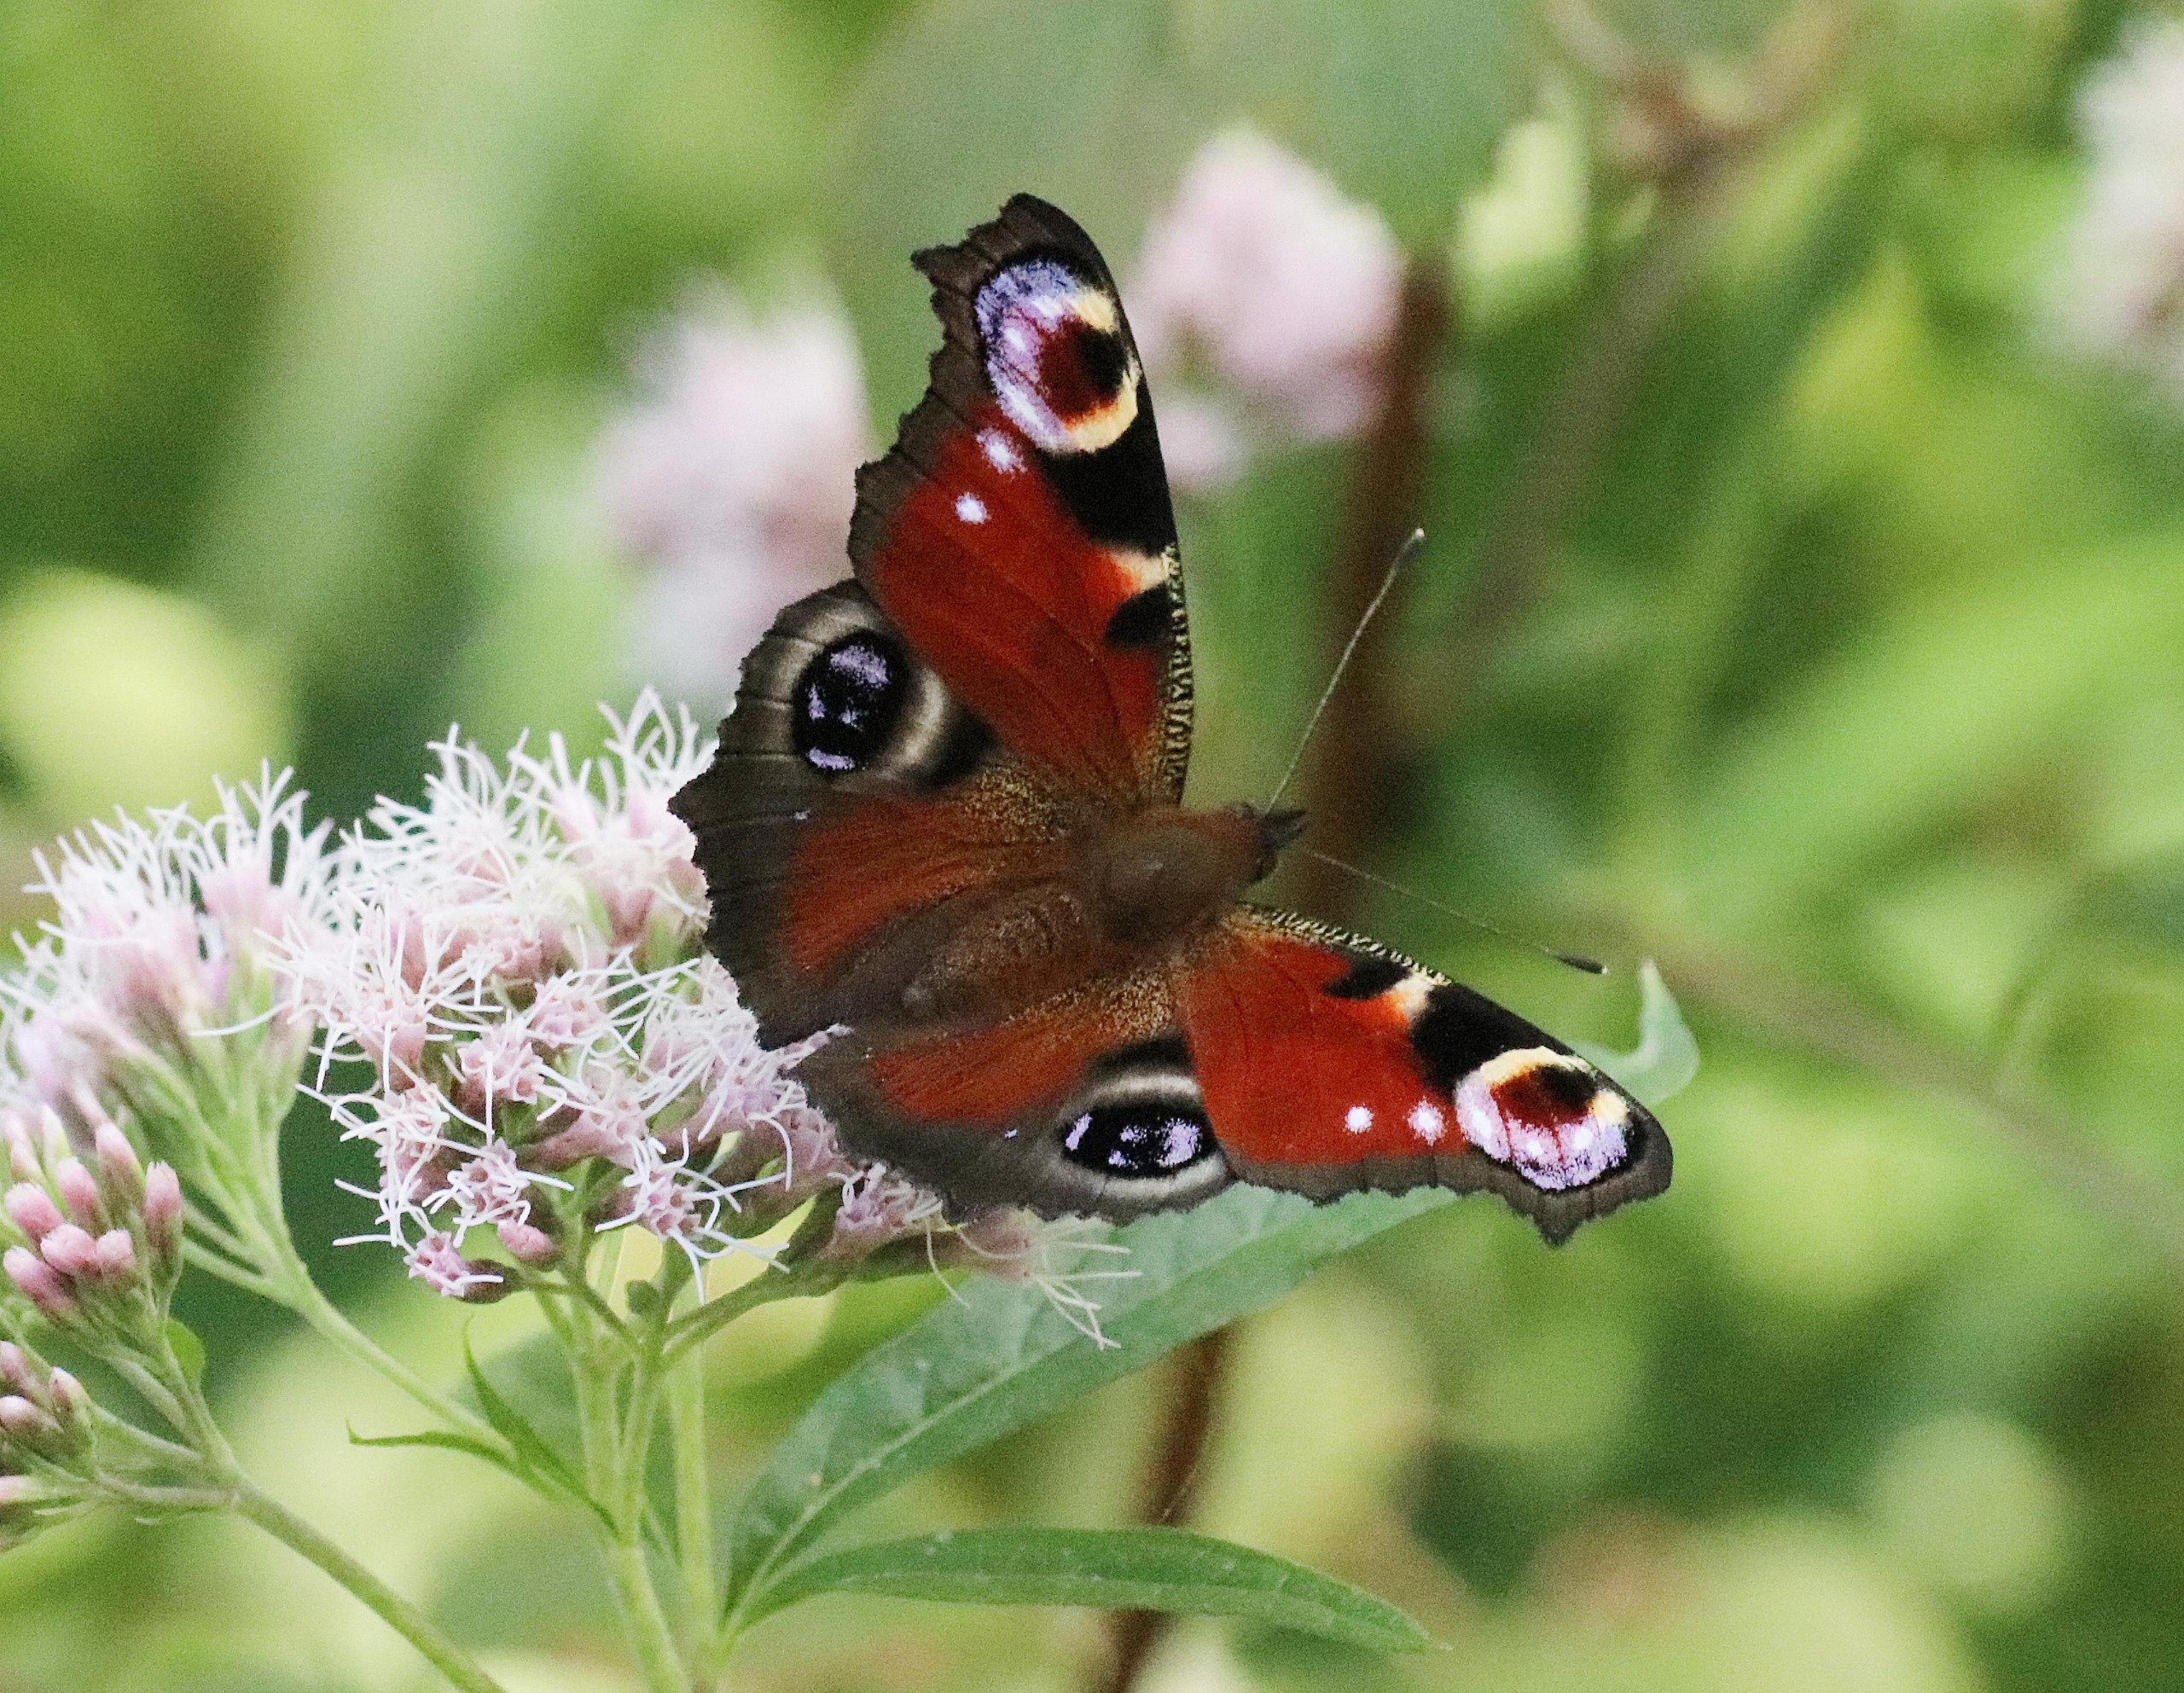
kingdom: Animalia
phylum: Arthropoda
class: Insecta
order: Lepidoptera
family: Nymphalidae
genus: Aglais
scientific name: Aglais io
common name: Dagpåfugleøje
